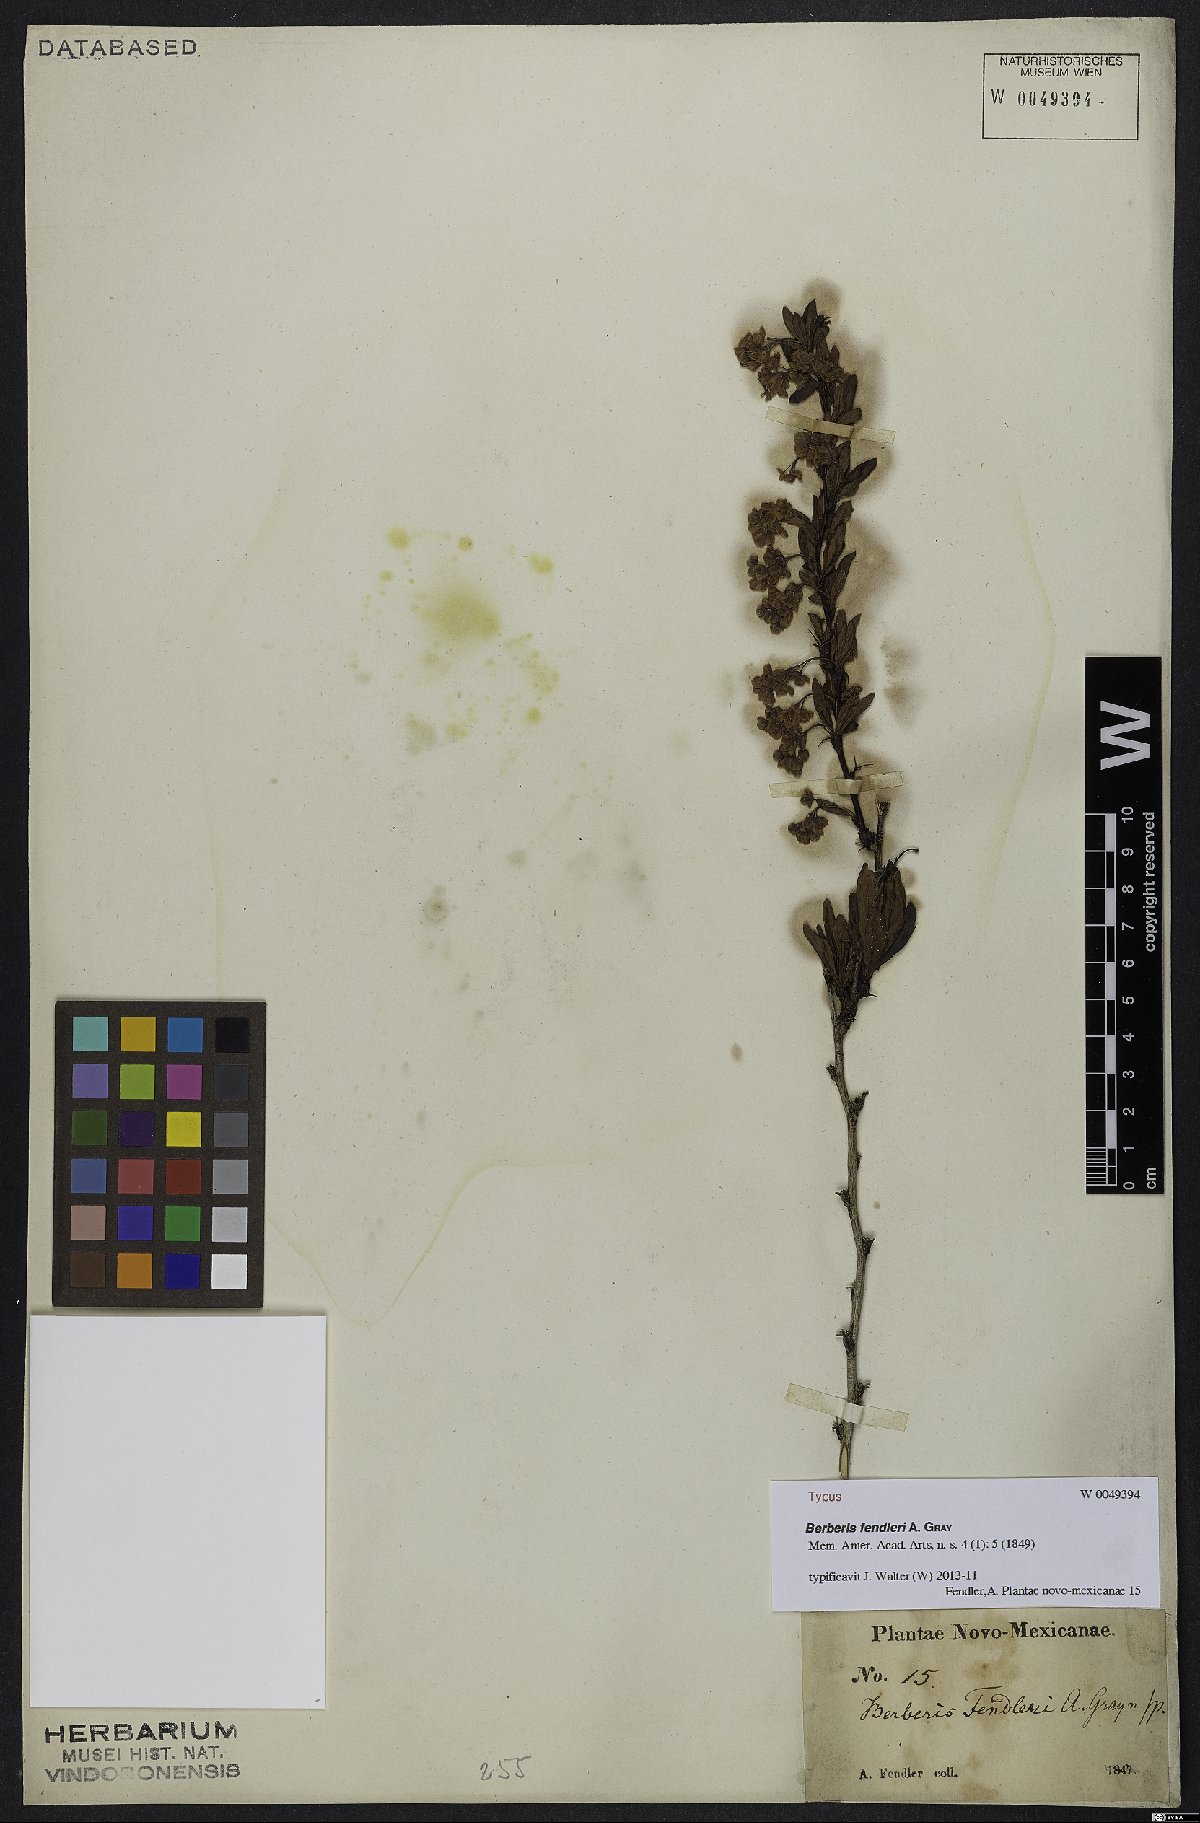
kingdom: Plantae
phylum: Tracheophyta
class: Magnoliopsida
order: Ranunculales
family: Berberidaceae
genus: Berberis
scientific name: Berberis fendleri
